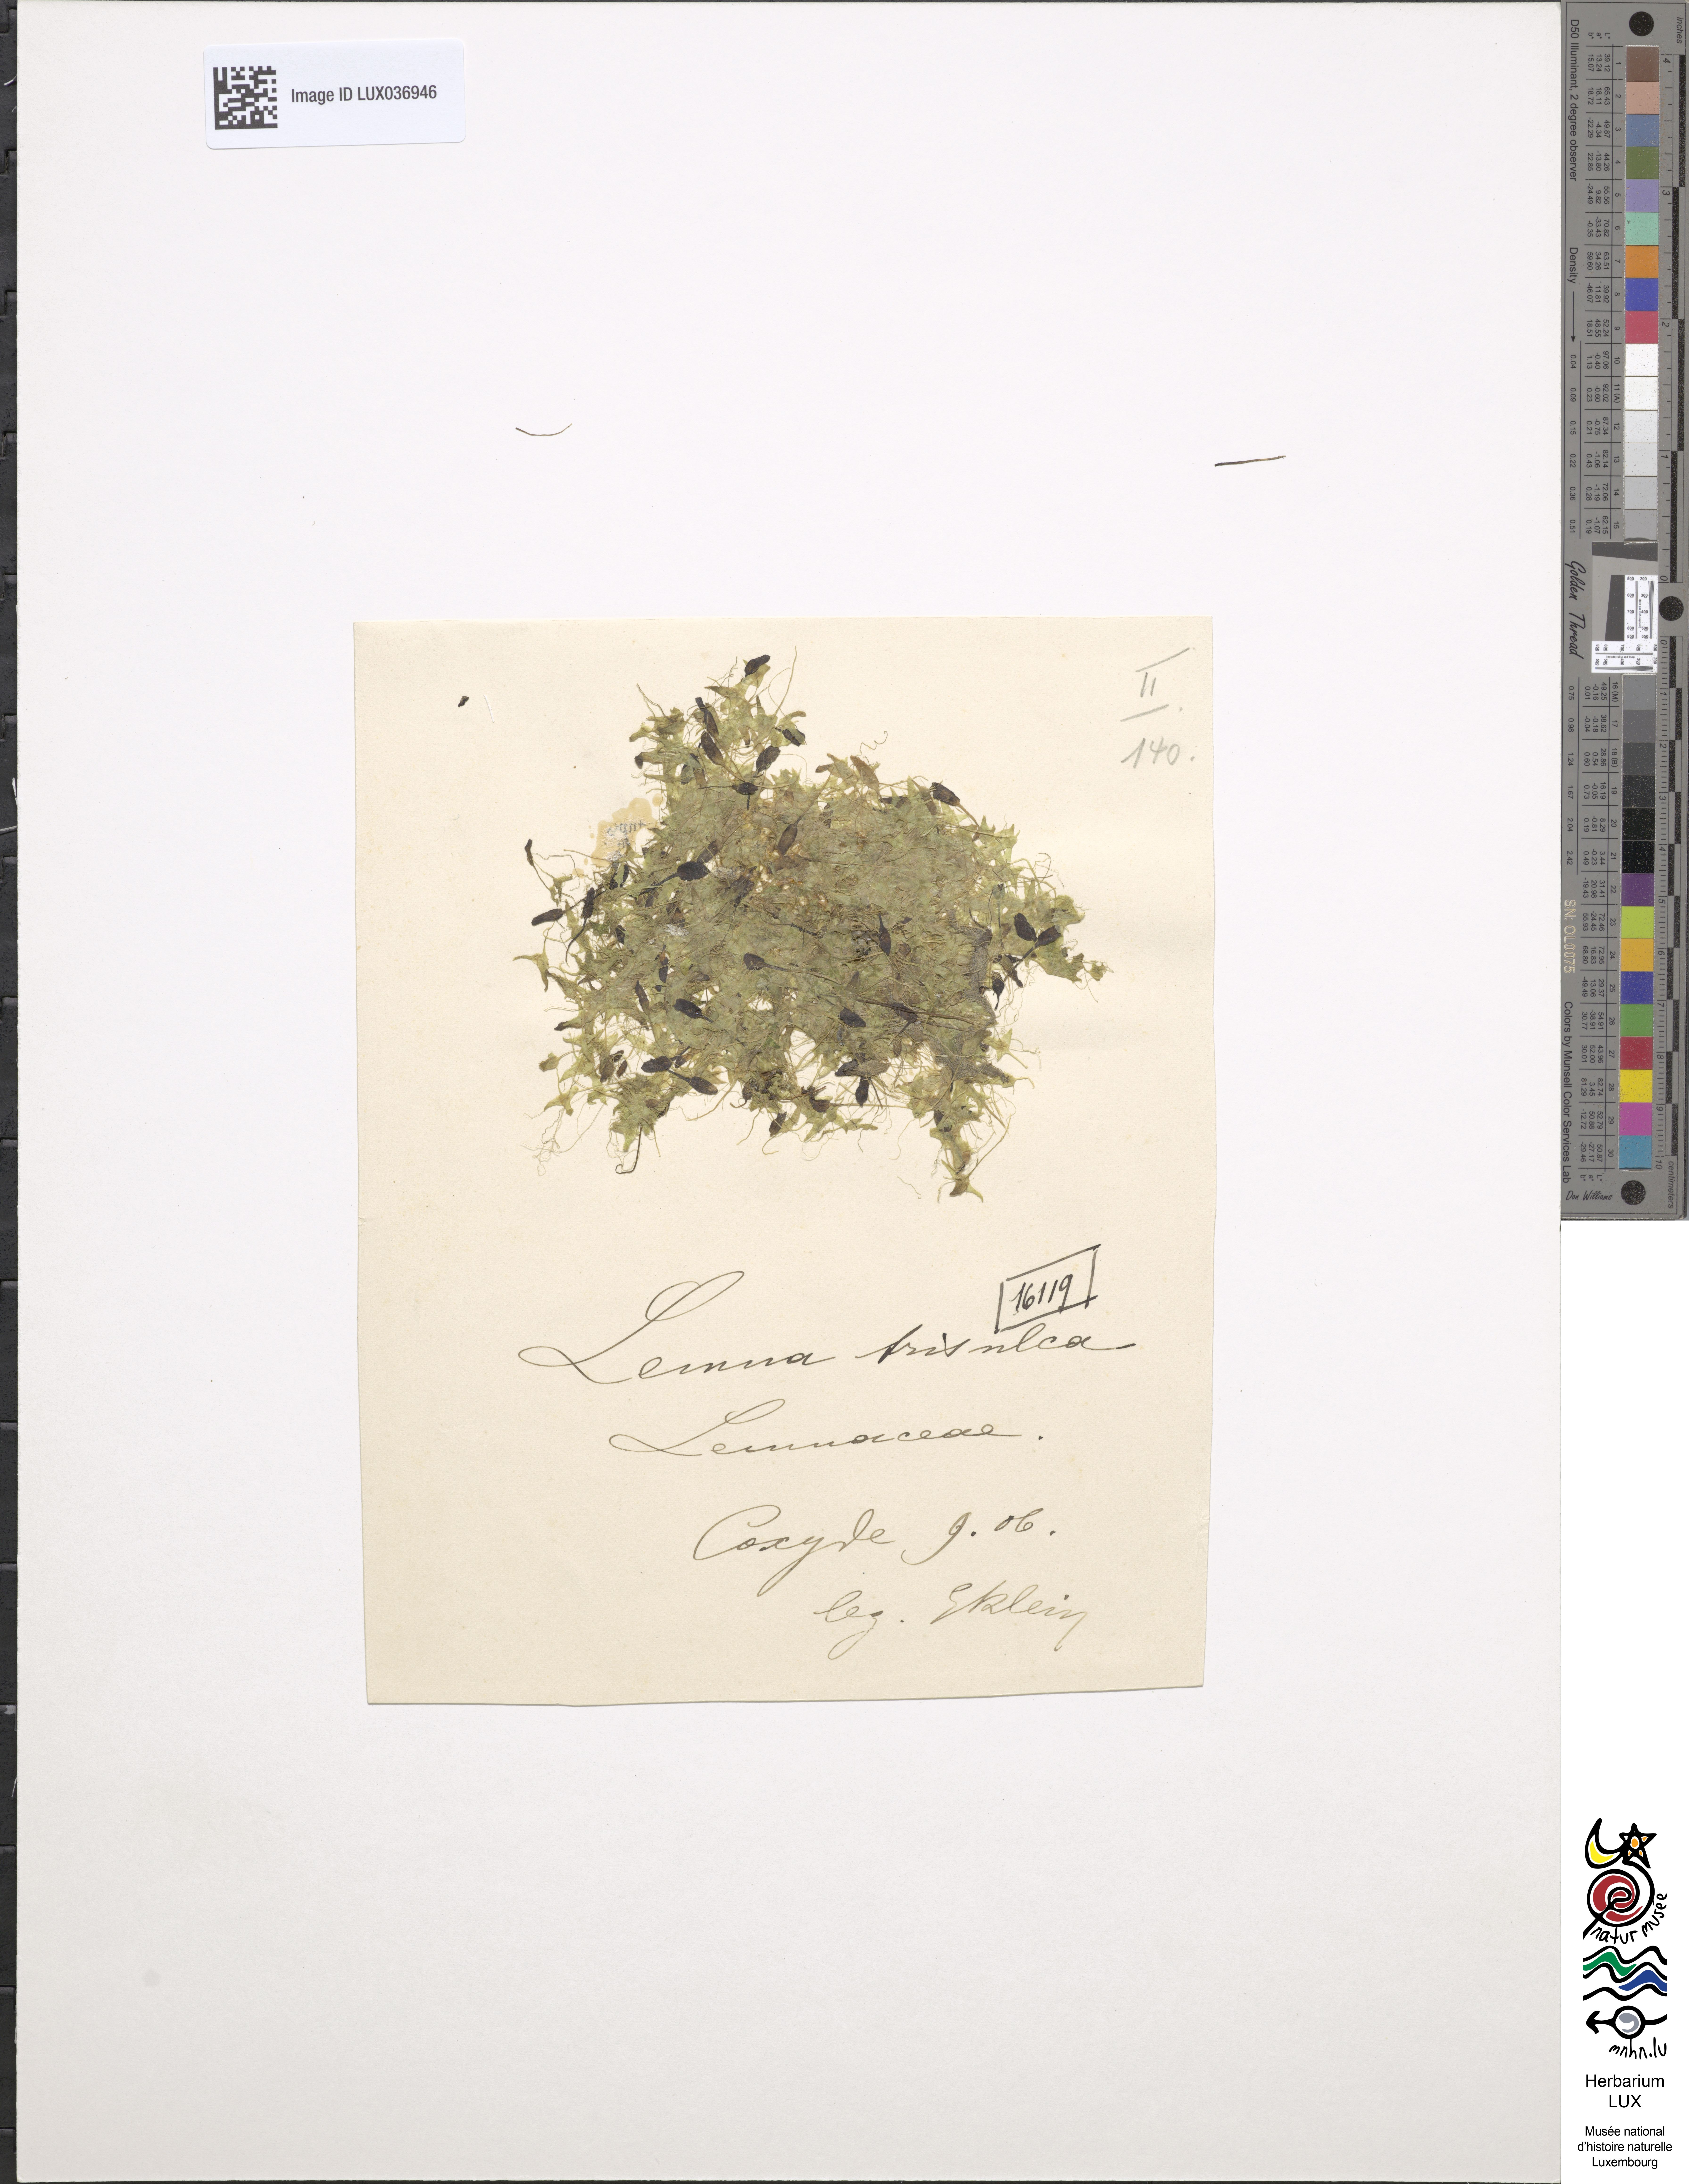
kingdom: Plantae
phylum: Tracheophyta
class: Liliopsida
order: Alismatales
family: Araceae
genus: Lemna
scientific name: Lemna trisulca
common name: Ivy-leaved duckweed
